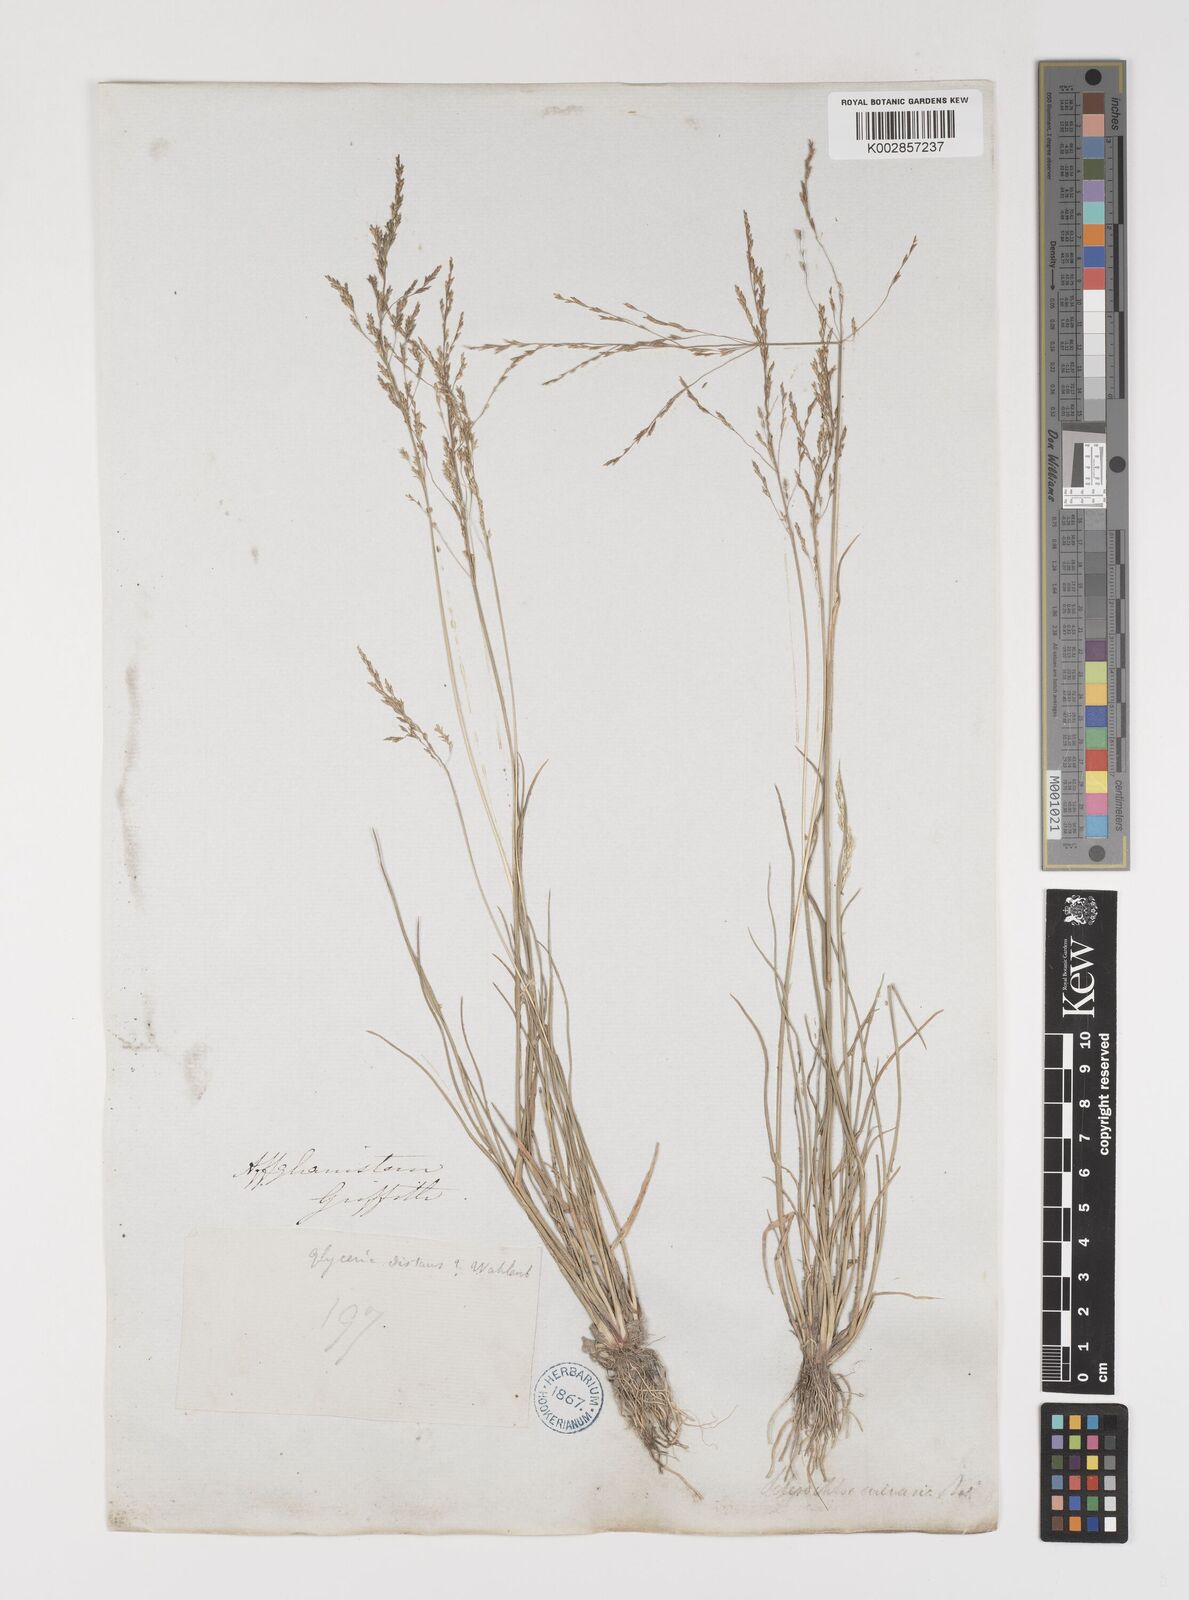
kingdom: Plantae
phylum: Tracheophyta
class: Liliopsida
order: Poales
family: Poaceae
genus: Puccinellia
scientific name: Puccinellia distans
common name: Weeping alkaligrass
